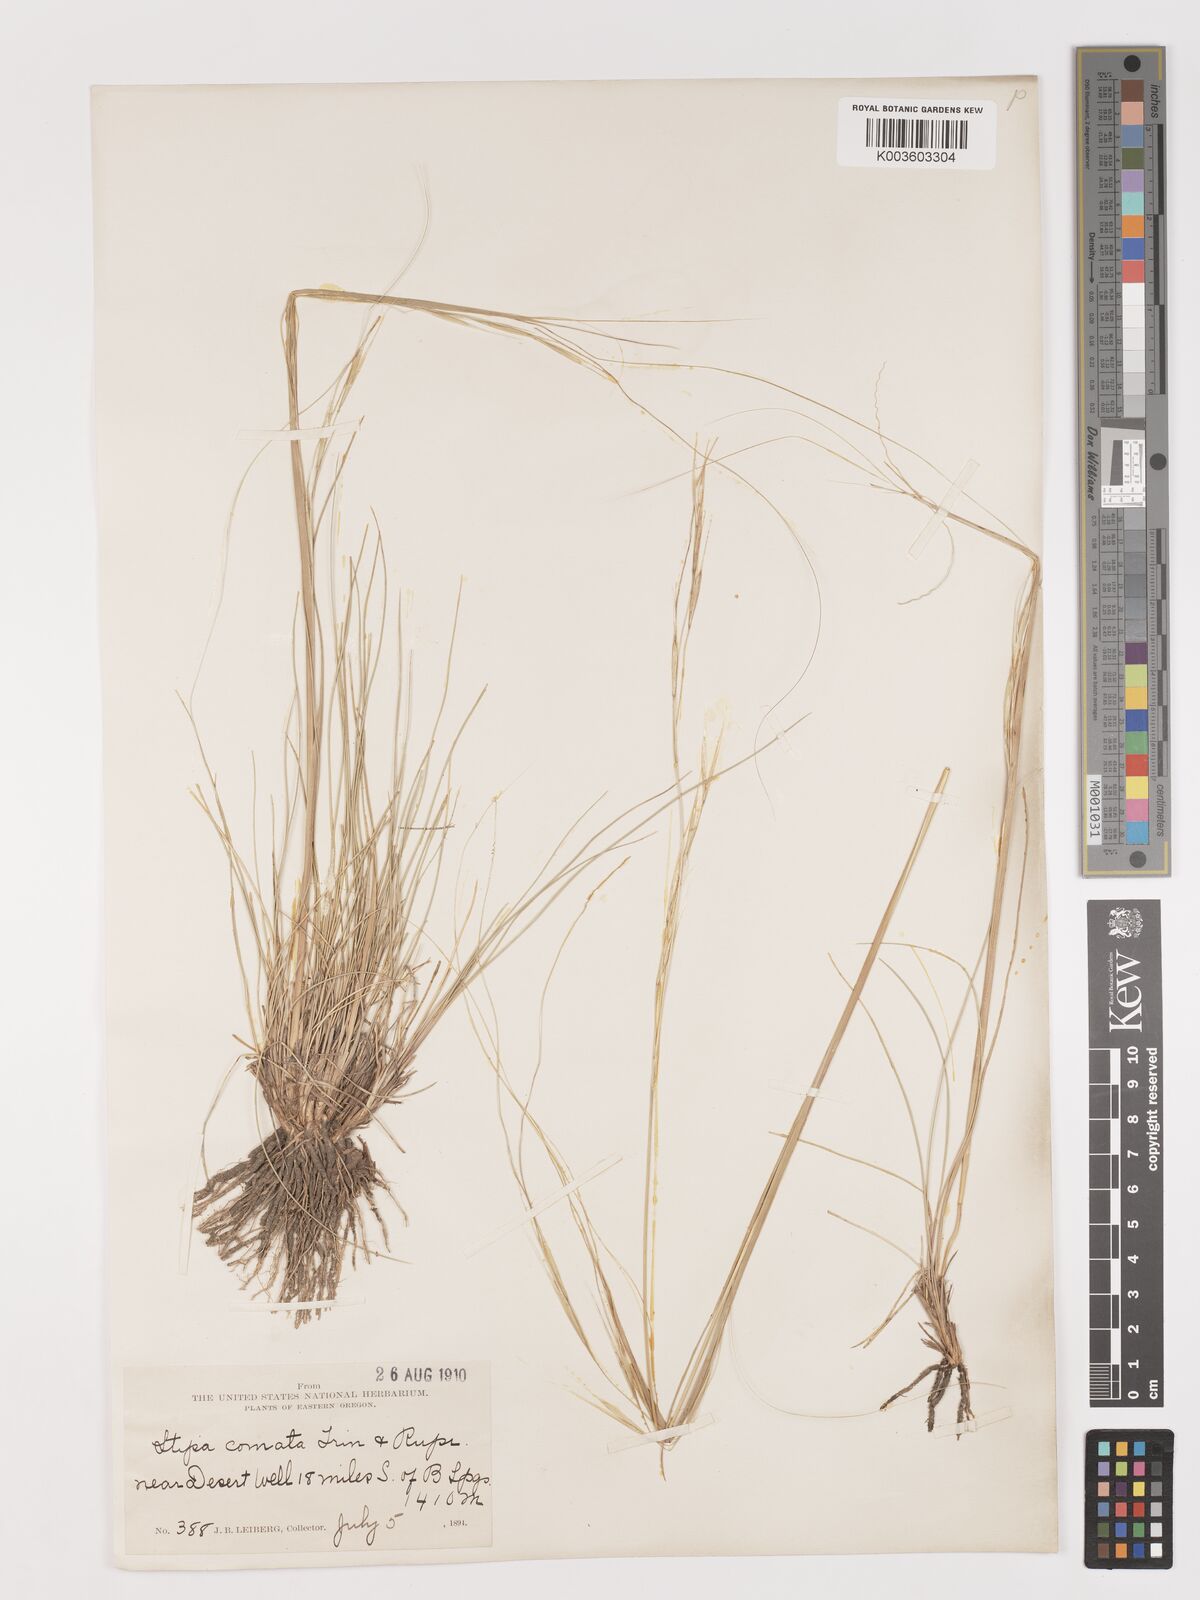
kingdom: Plantae
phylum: Tracheophyta
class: Liliopsida
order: Poales
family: Poaceae
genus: Stipa
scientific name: Stipa
